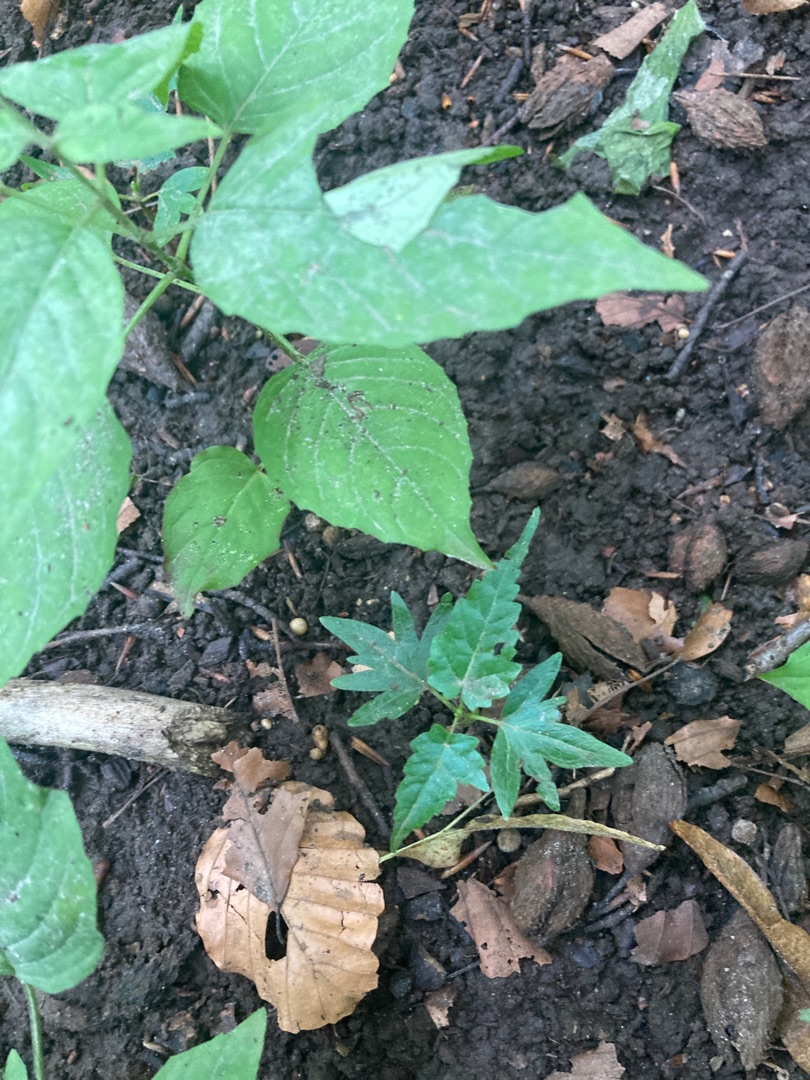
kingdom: Plantae
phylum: Tracheophyta
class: Magnoliopsida
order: Myrtales
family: Onagraceae
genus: Circaea
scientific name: Circaea lutetiana
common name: Dunet steffensurt
